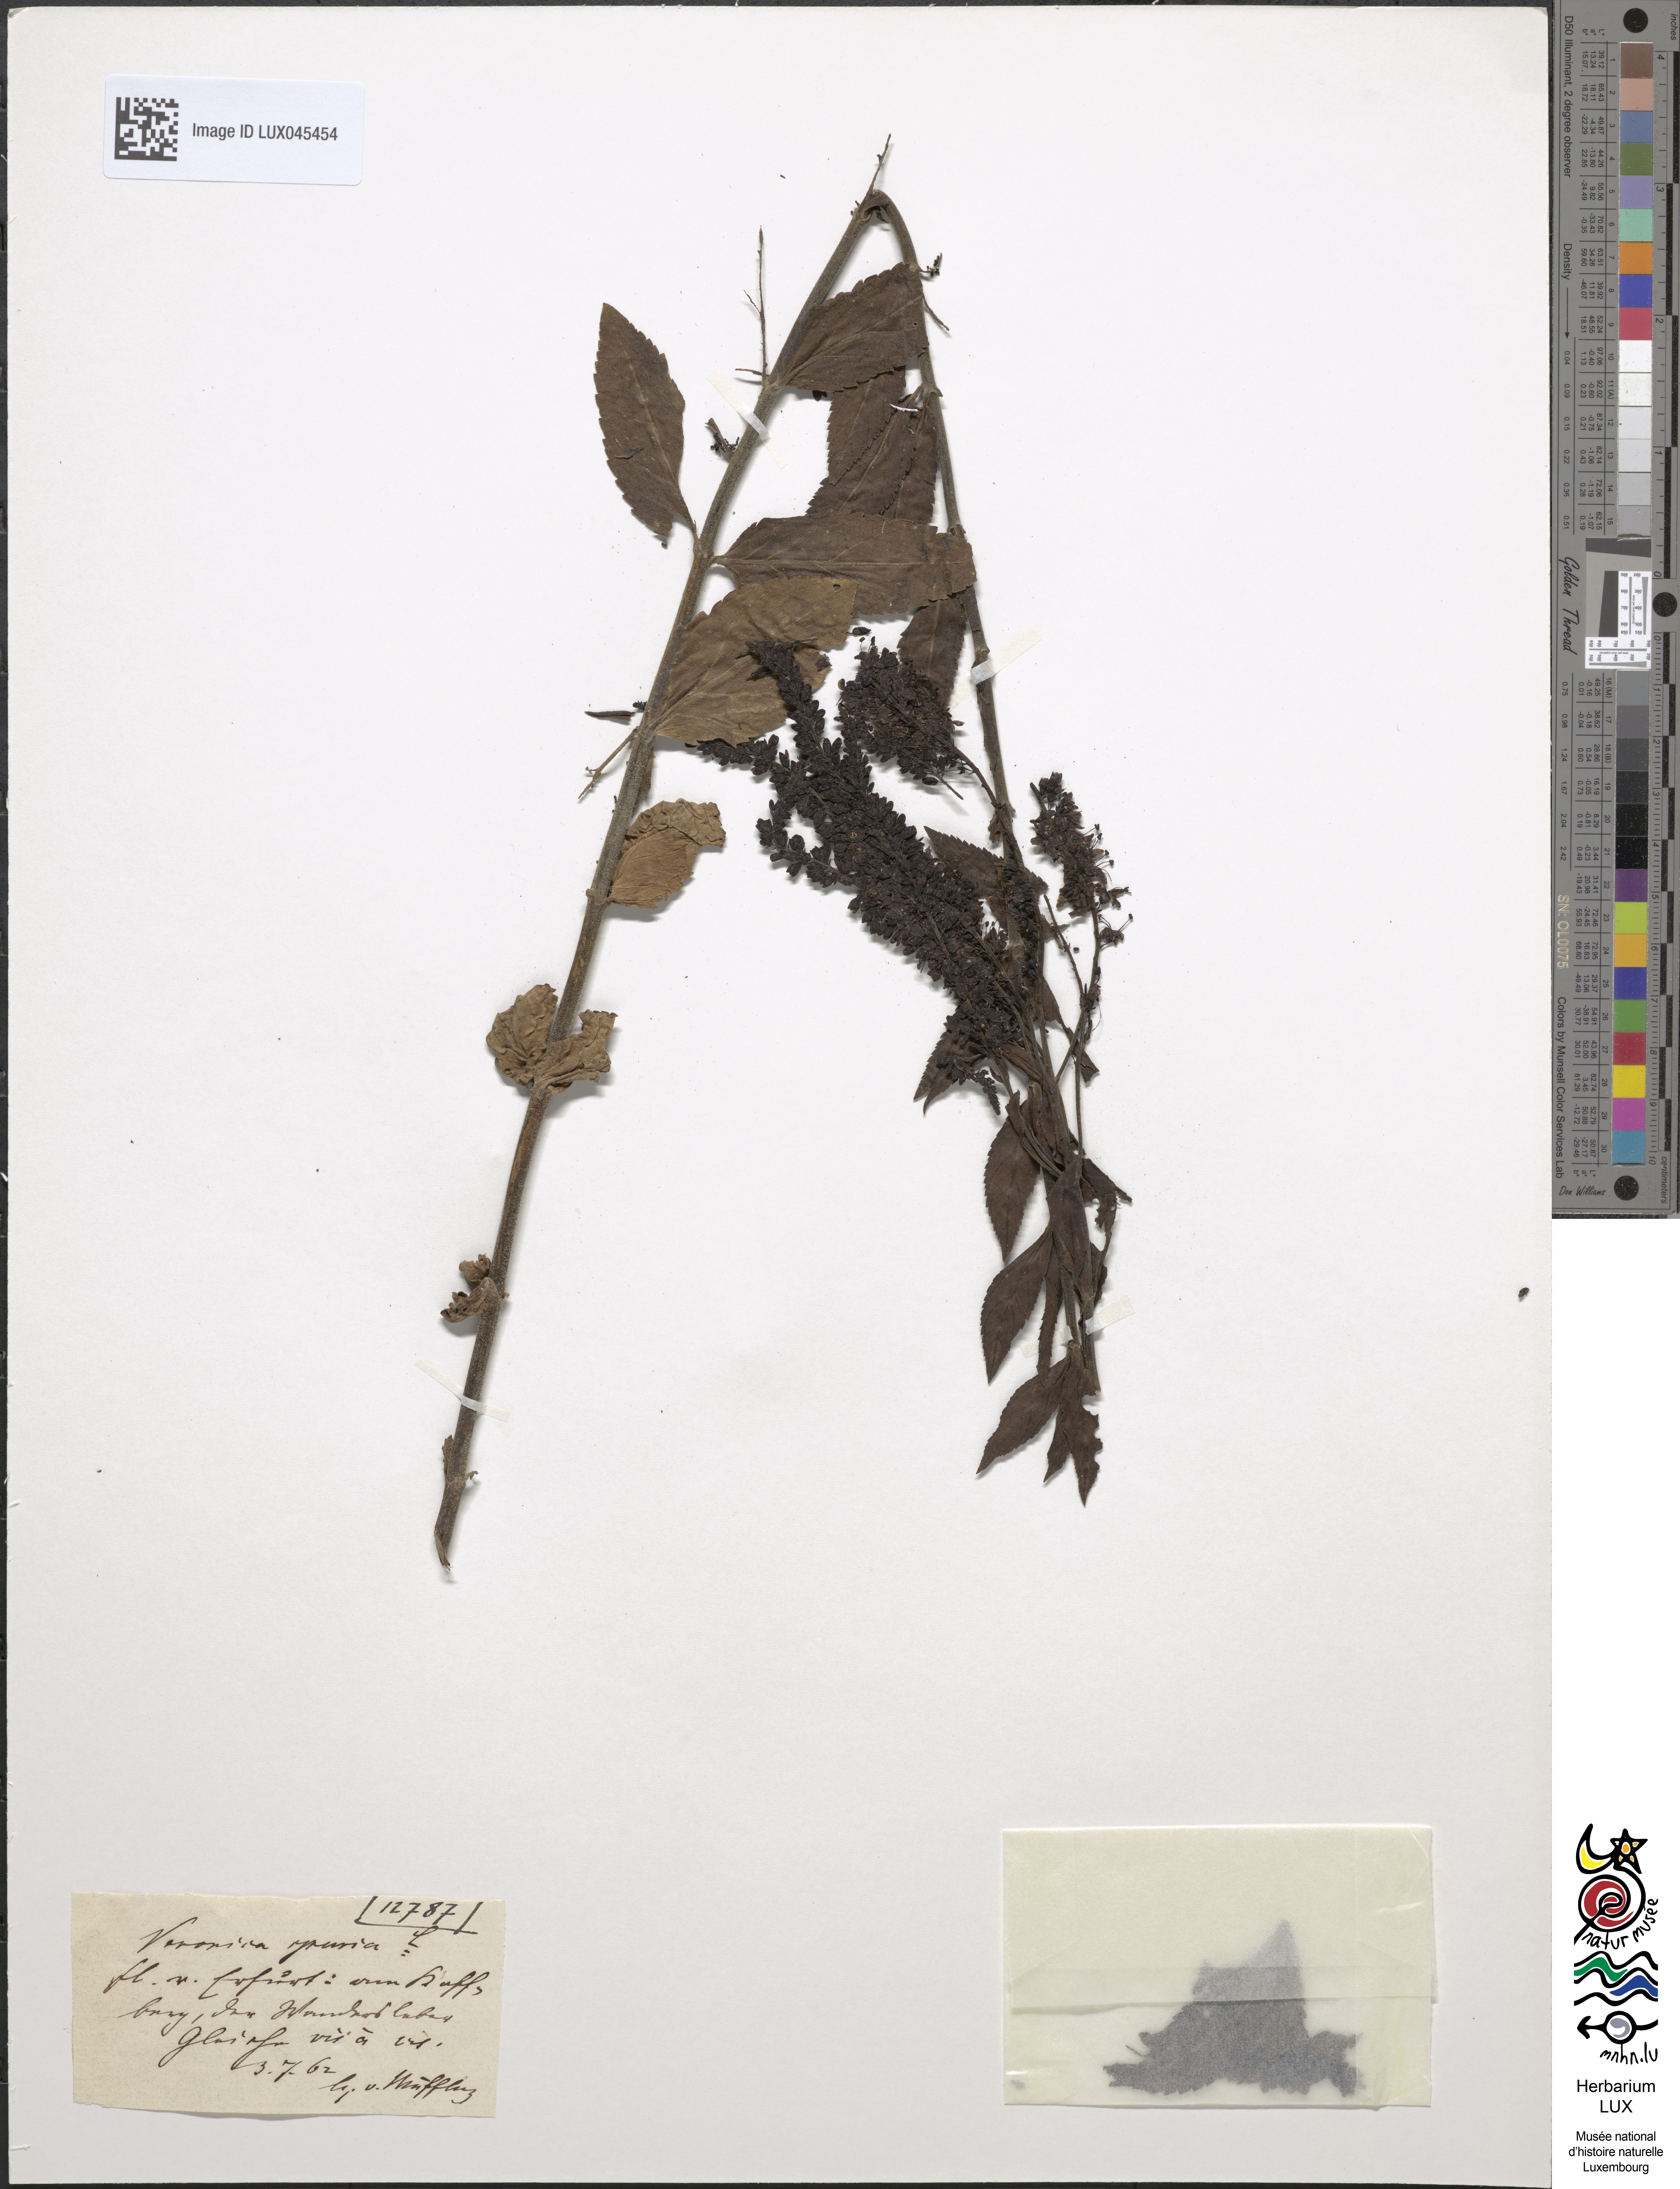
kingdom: Plantae
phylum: Tracheophyta
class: Magnoliopsida
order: Lamiales
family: Plantaginaceae
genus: Veronica
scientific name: Veronica spuria
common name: Bastard speedwell
